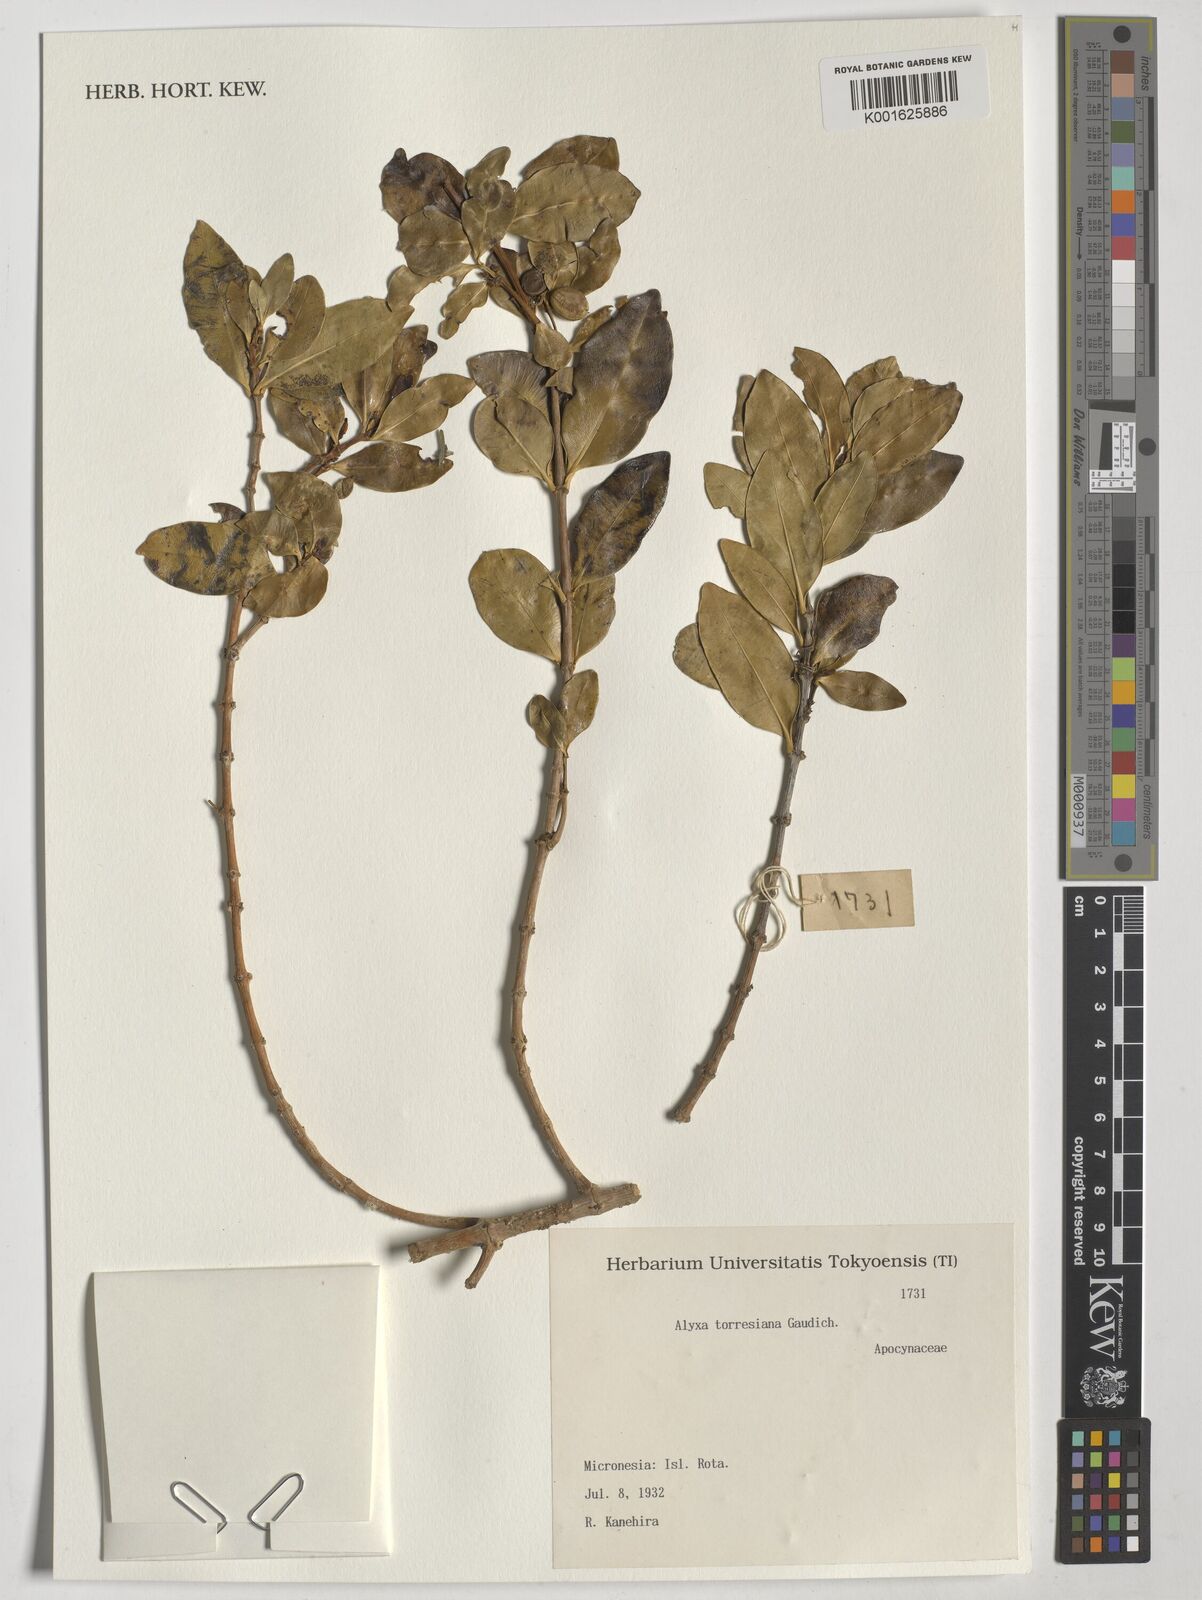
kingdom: Plantae
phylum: Tracheophyta
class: Magnoliopsida
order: Gentianales
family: Apocynaceae
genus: Alyxia
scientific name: Alyxia stellata
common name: Maile
